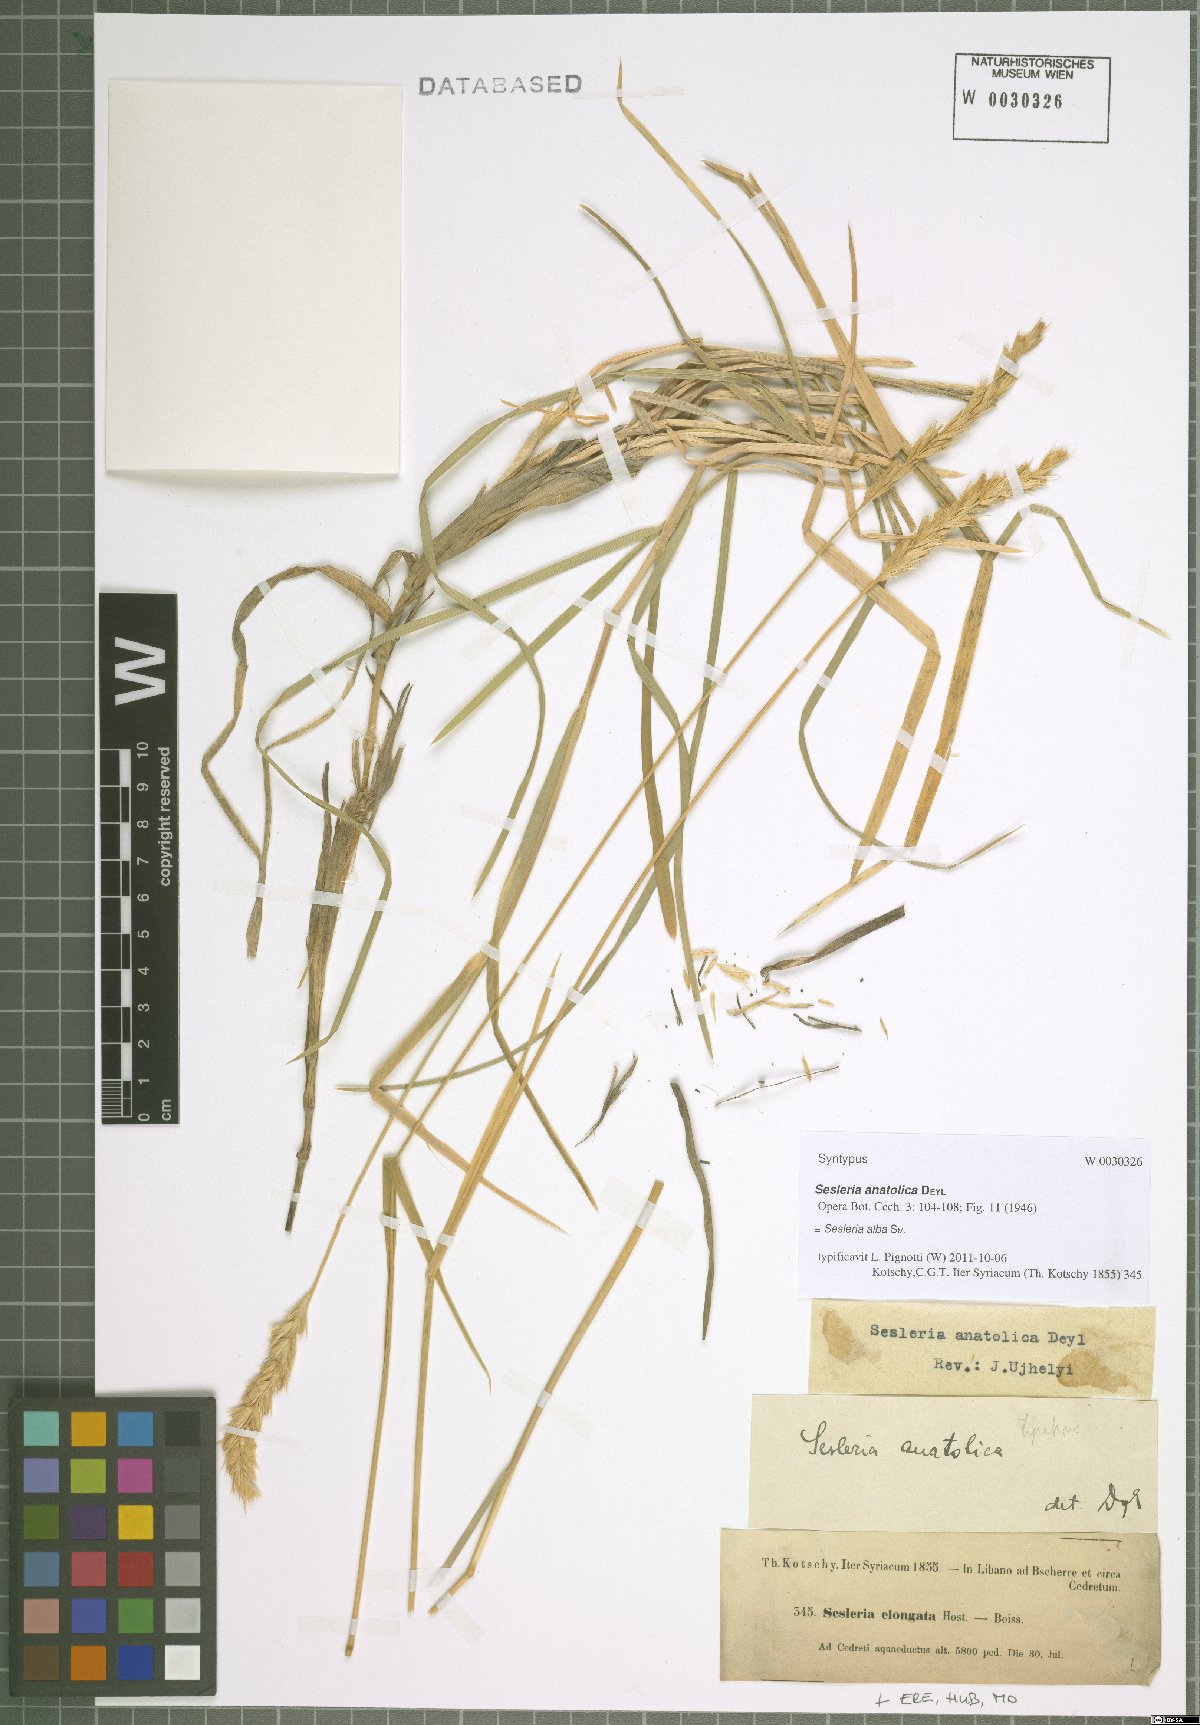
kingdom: Plantae
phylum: Tracheophyta
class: Liliopsida
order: Poales
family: Poaceae
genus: Sesleria
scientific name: Sesleria alba
